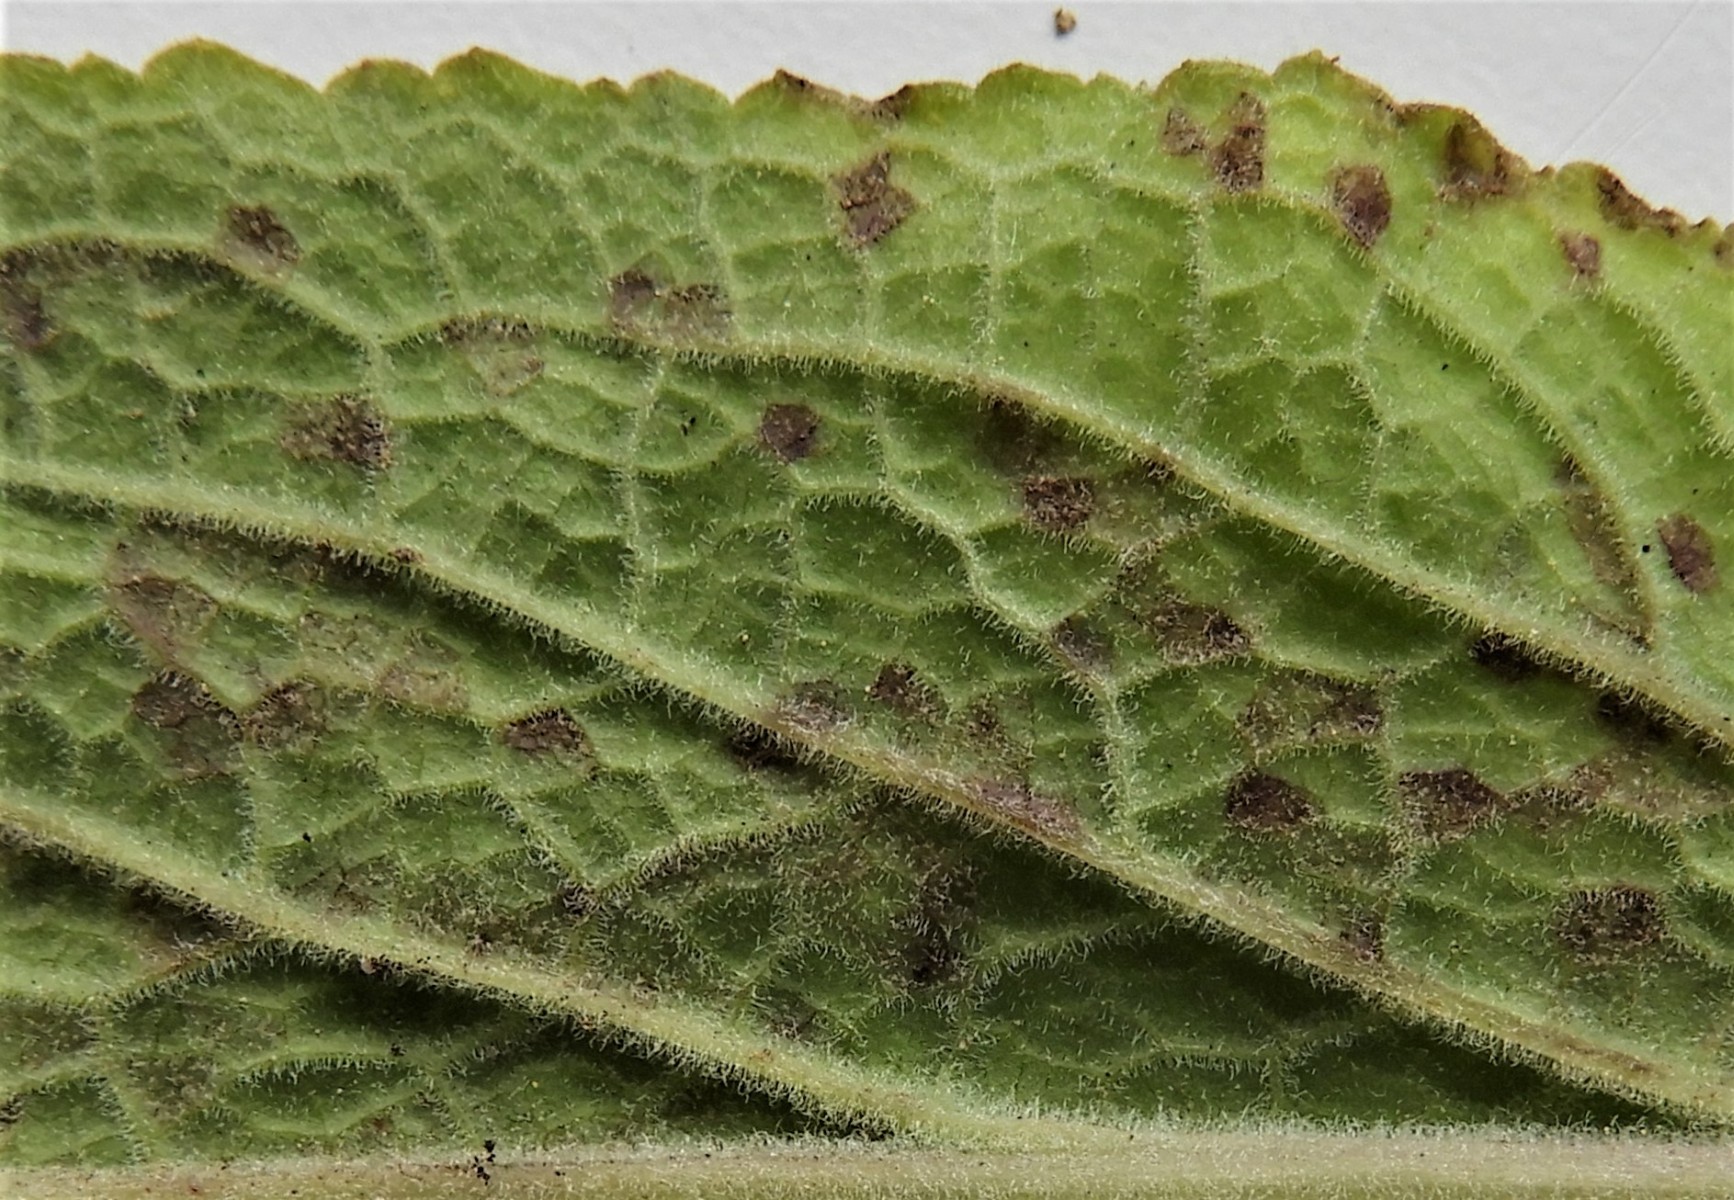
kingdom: Chromista
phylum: Oomycota
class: Peronosporea
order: Peronosporales
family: Peronosporaceae
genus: Peronospora
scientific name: Peronospora digitalis
